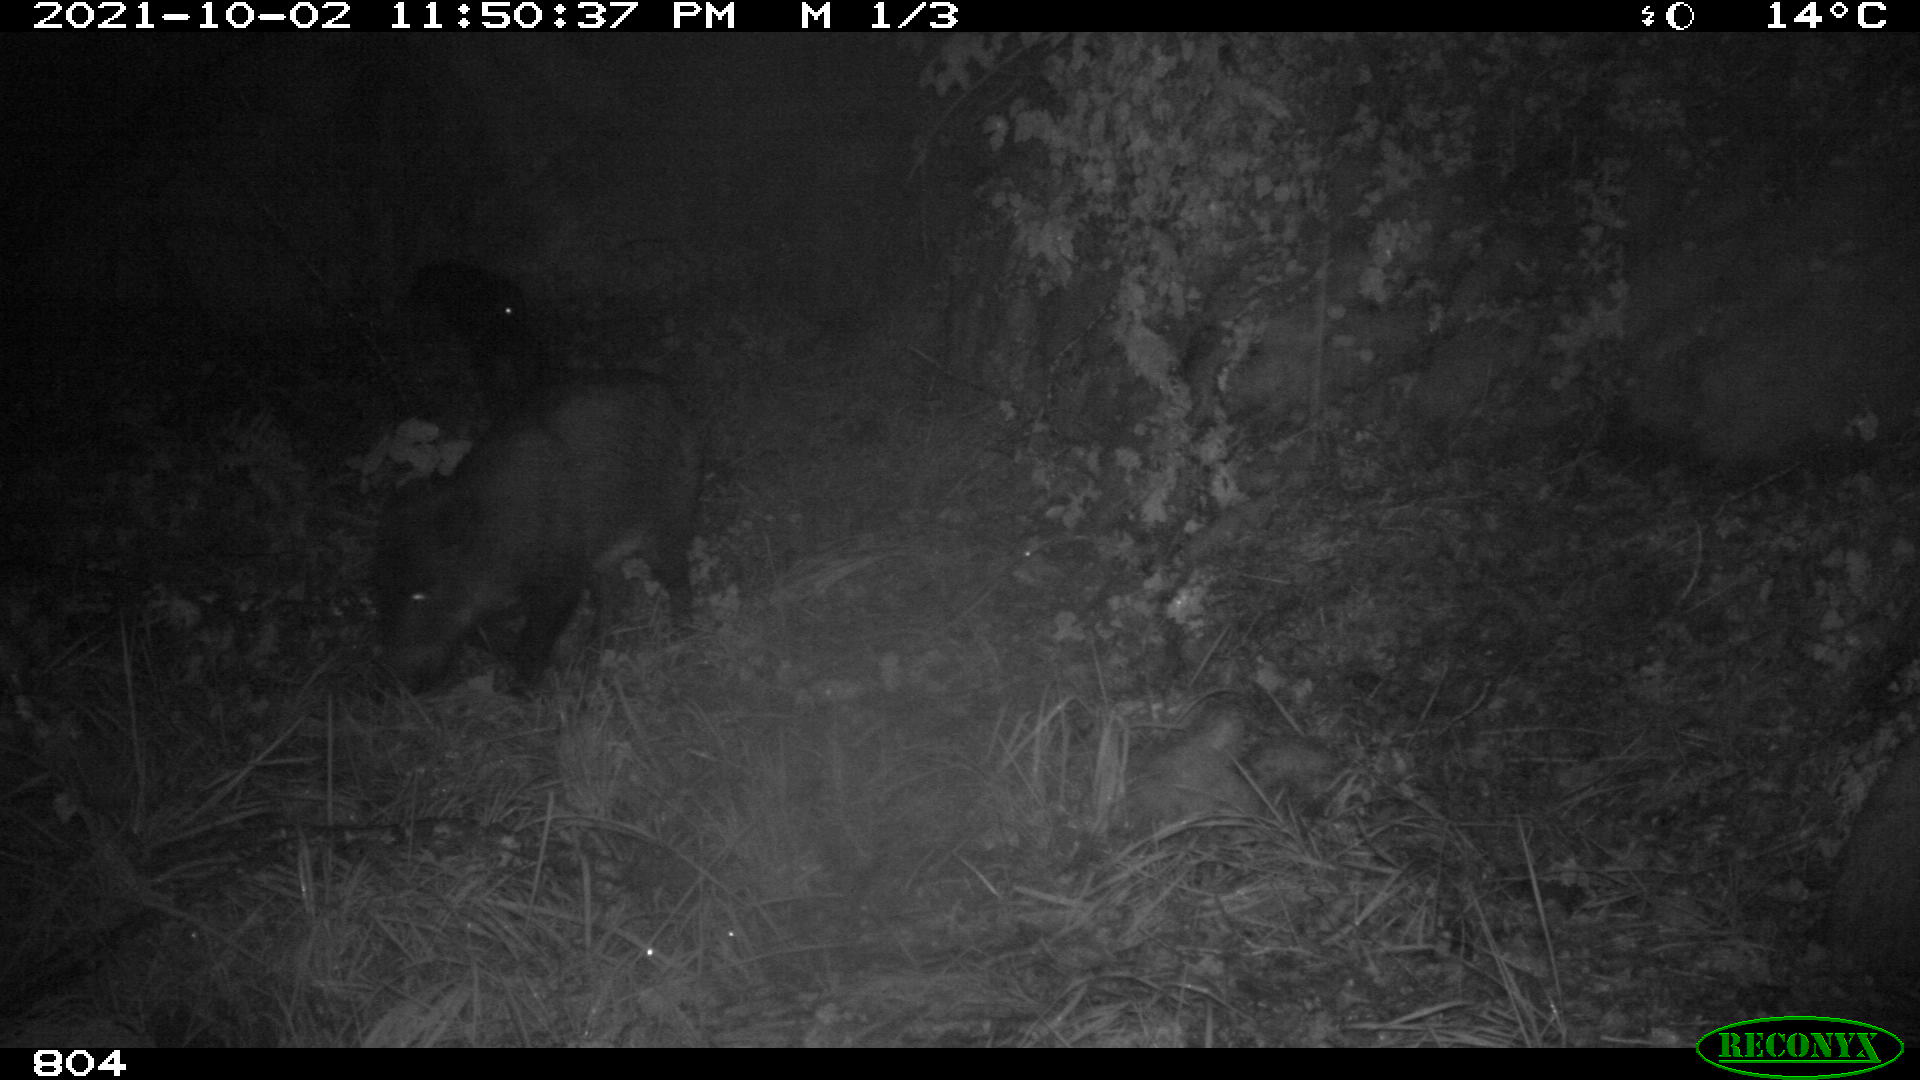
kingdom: Animalia
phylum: Chordata
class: Mammalia
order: Artiodactyla
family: Suidae
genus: Sus
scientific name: Sus scrofa
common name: Wild boar
